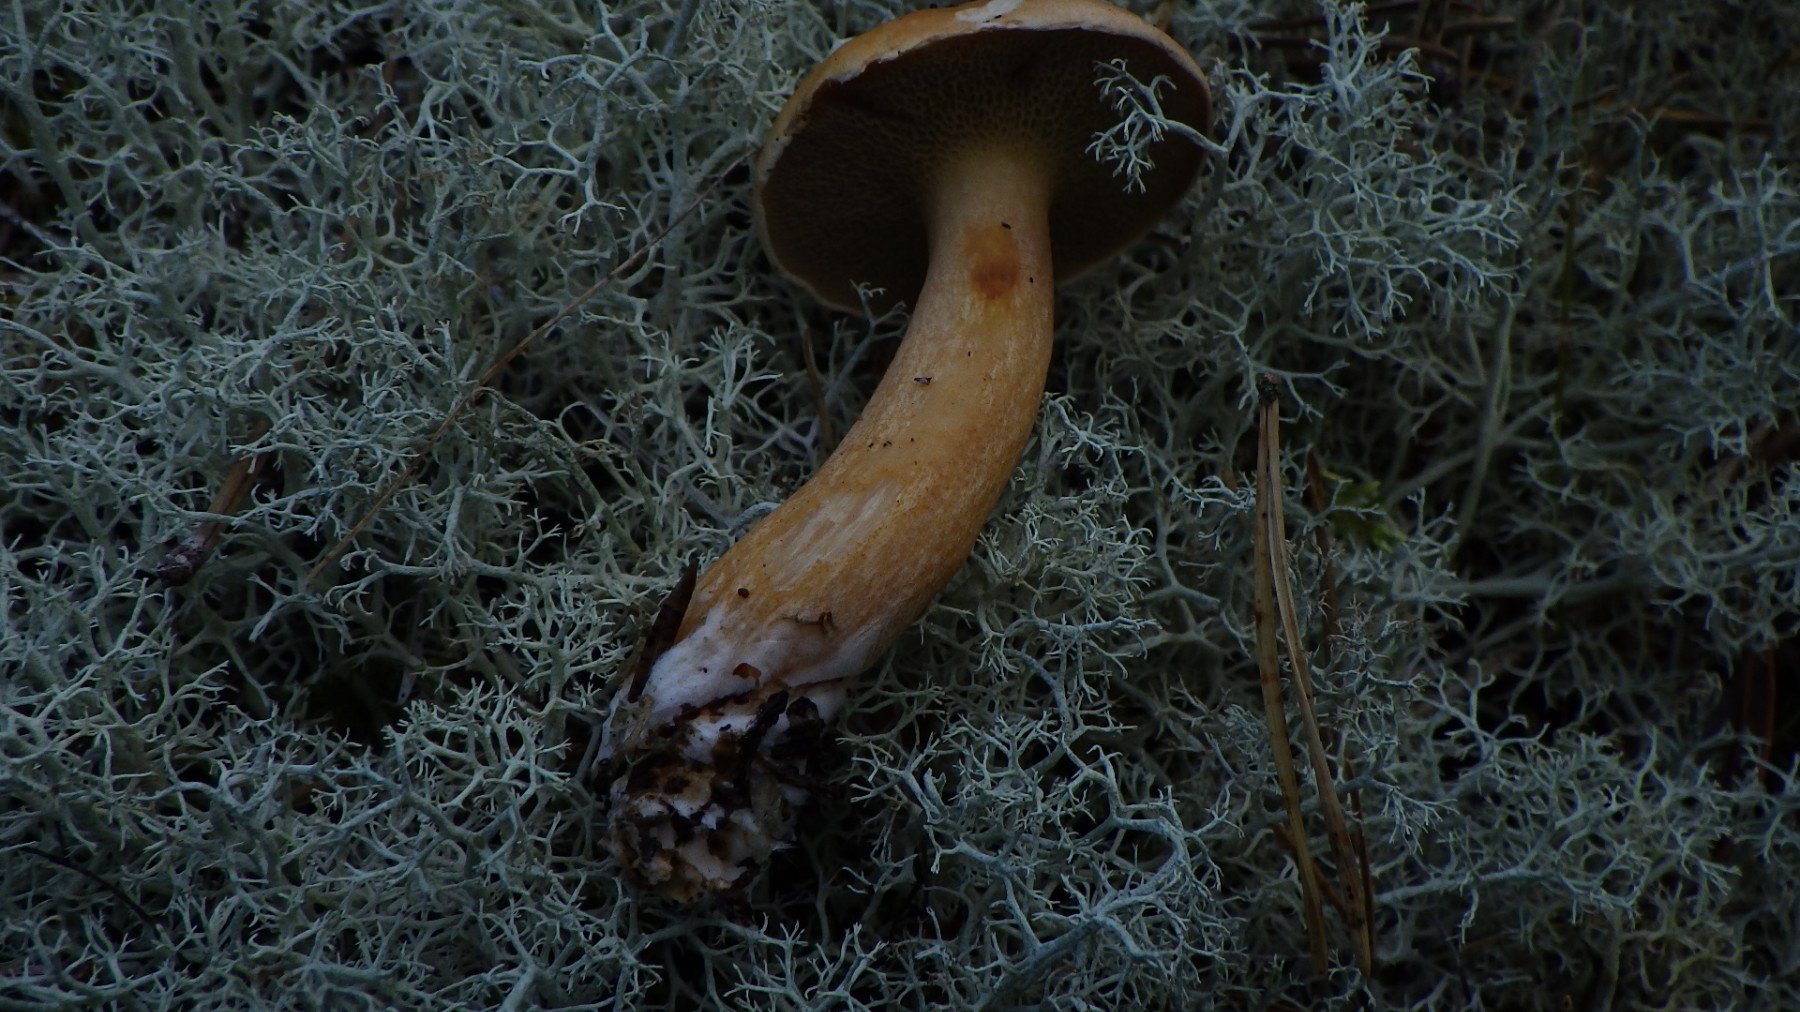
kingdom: Fungi
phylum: Basidiomycota
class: Agaricomycetes
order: Boletales
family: Suillaceae
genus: Suillus
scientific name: Suillus bovinus
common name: grovporet slimrørhat
